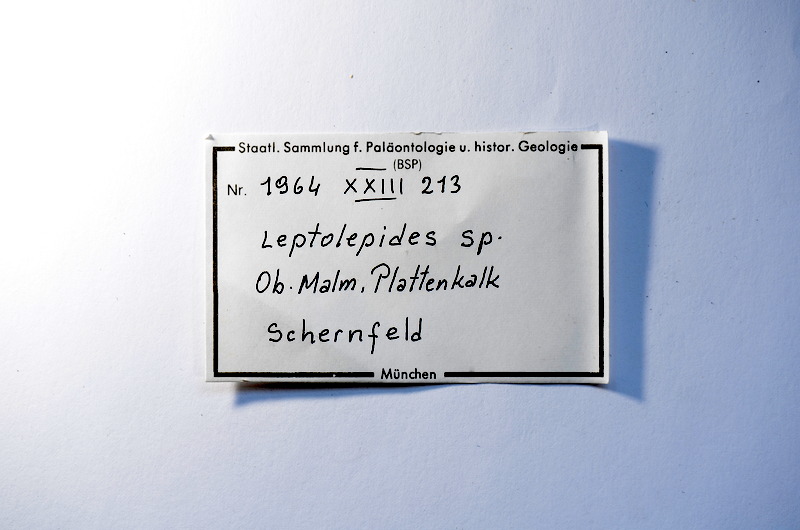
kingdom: Animalia
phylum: Chordata
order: Salmoniformes
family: Orthogonikleithridae
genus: Leptolepides
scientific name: Leptolepides
